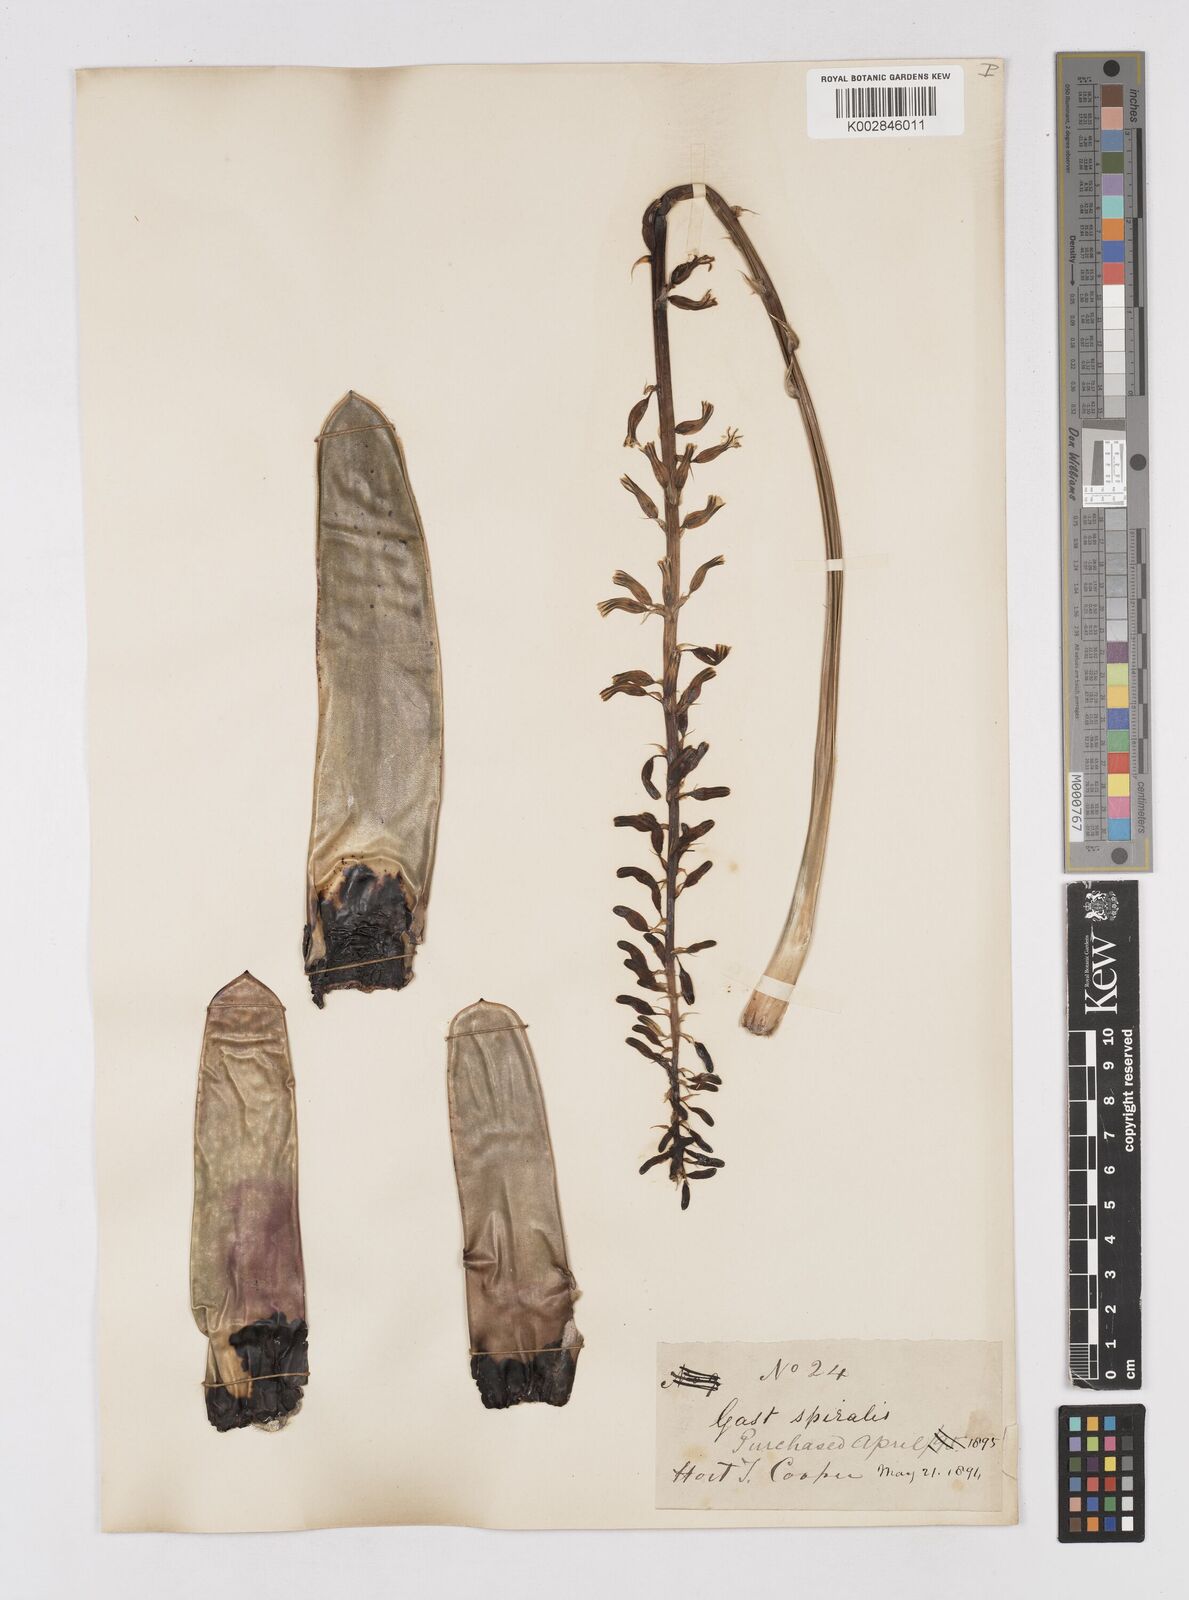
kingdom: Plantae
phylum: Tracheophyta
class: Liliopsida
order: Asparagales
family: Asphodelaceae
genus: Gasteria
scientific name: Gasteria obliqua
